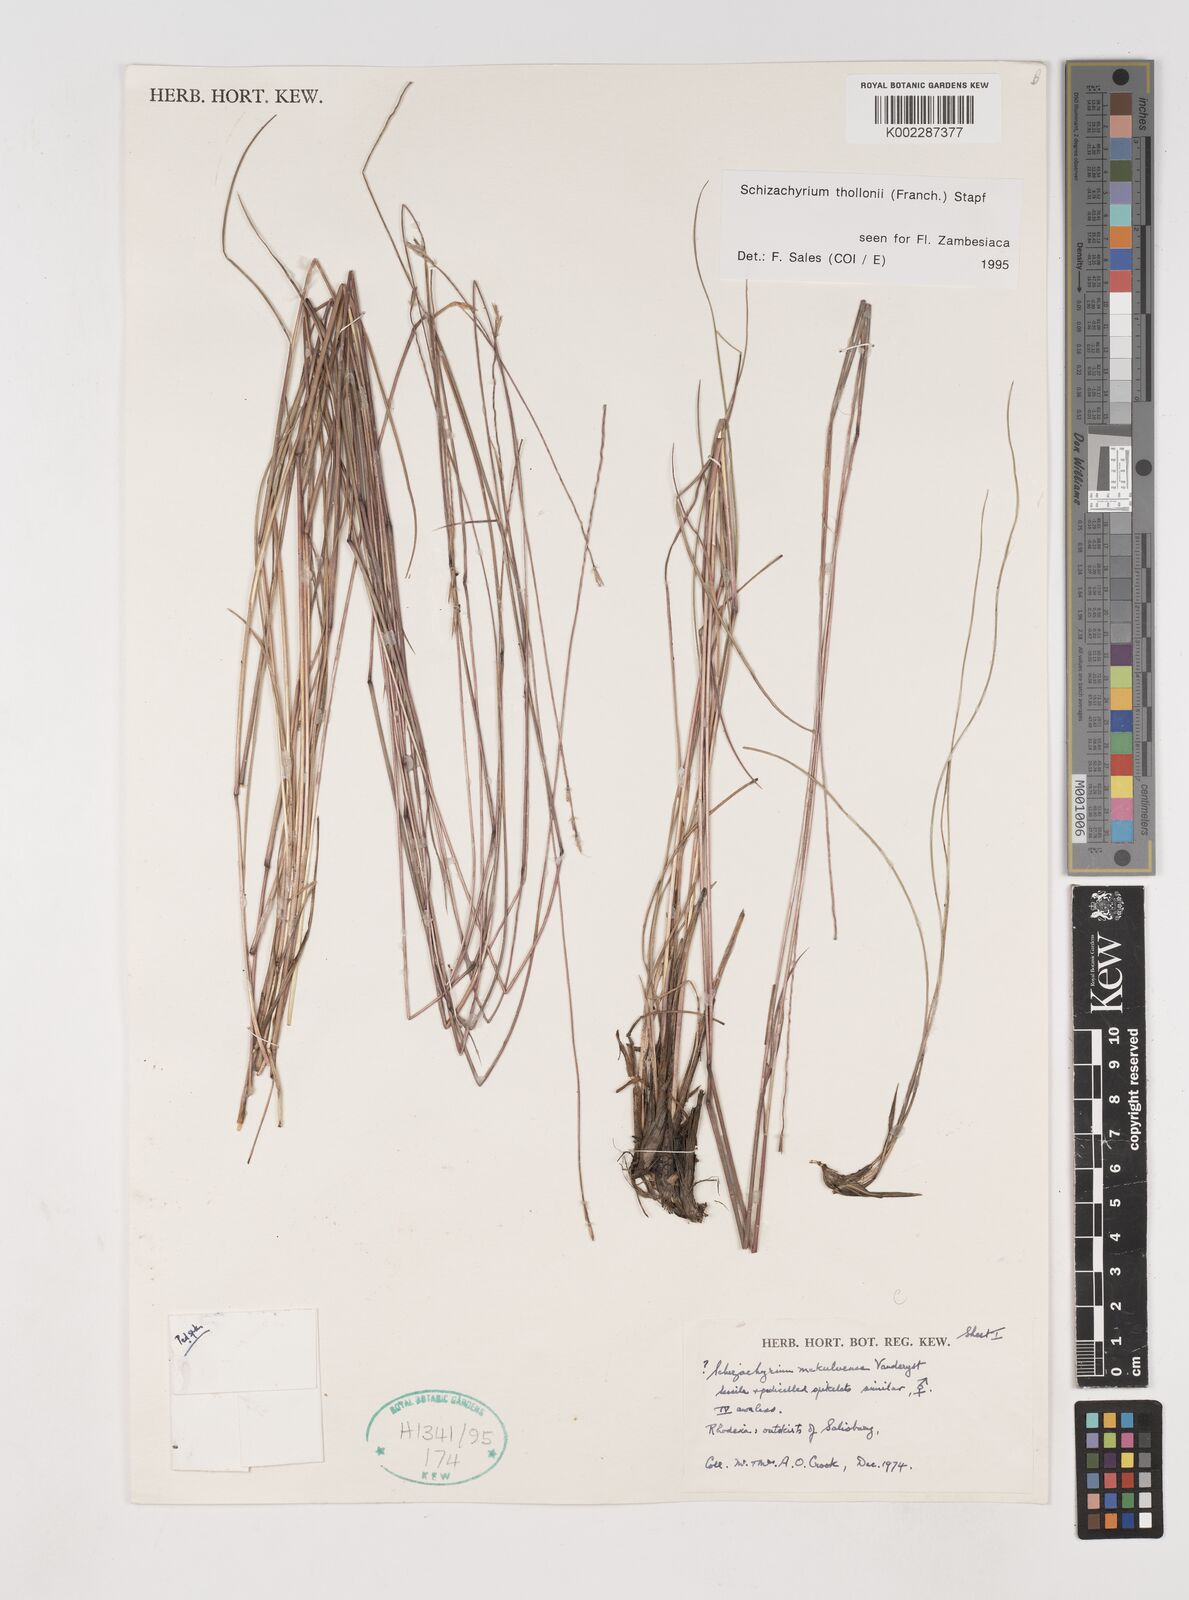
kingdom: Plantae
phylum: Tracheophyta
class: Liliopsida
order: Poales
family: Poaceae
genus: Schizachyrium
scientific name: Schizachyrium thollonii
